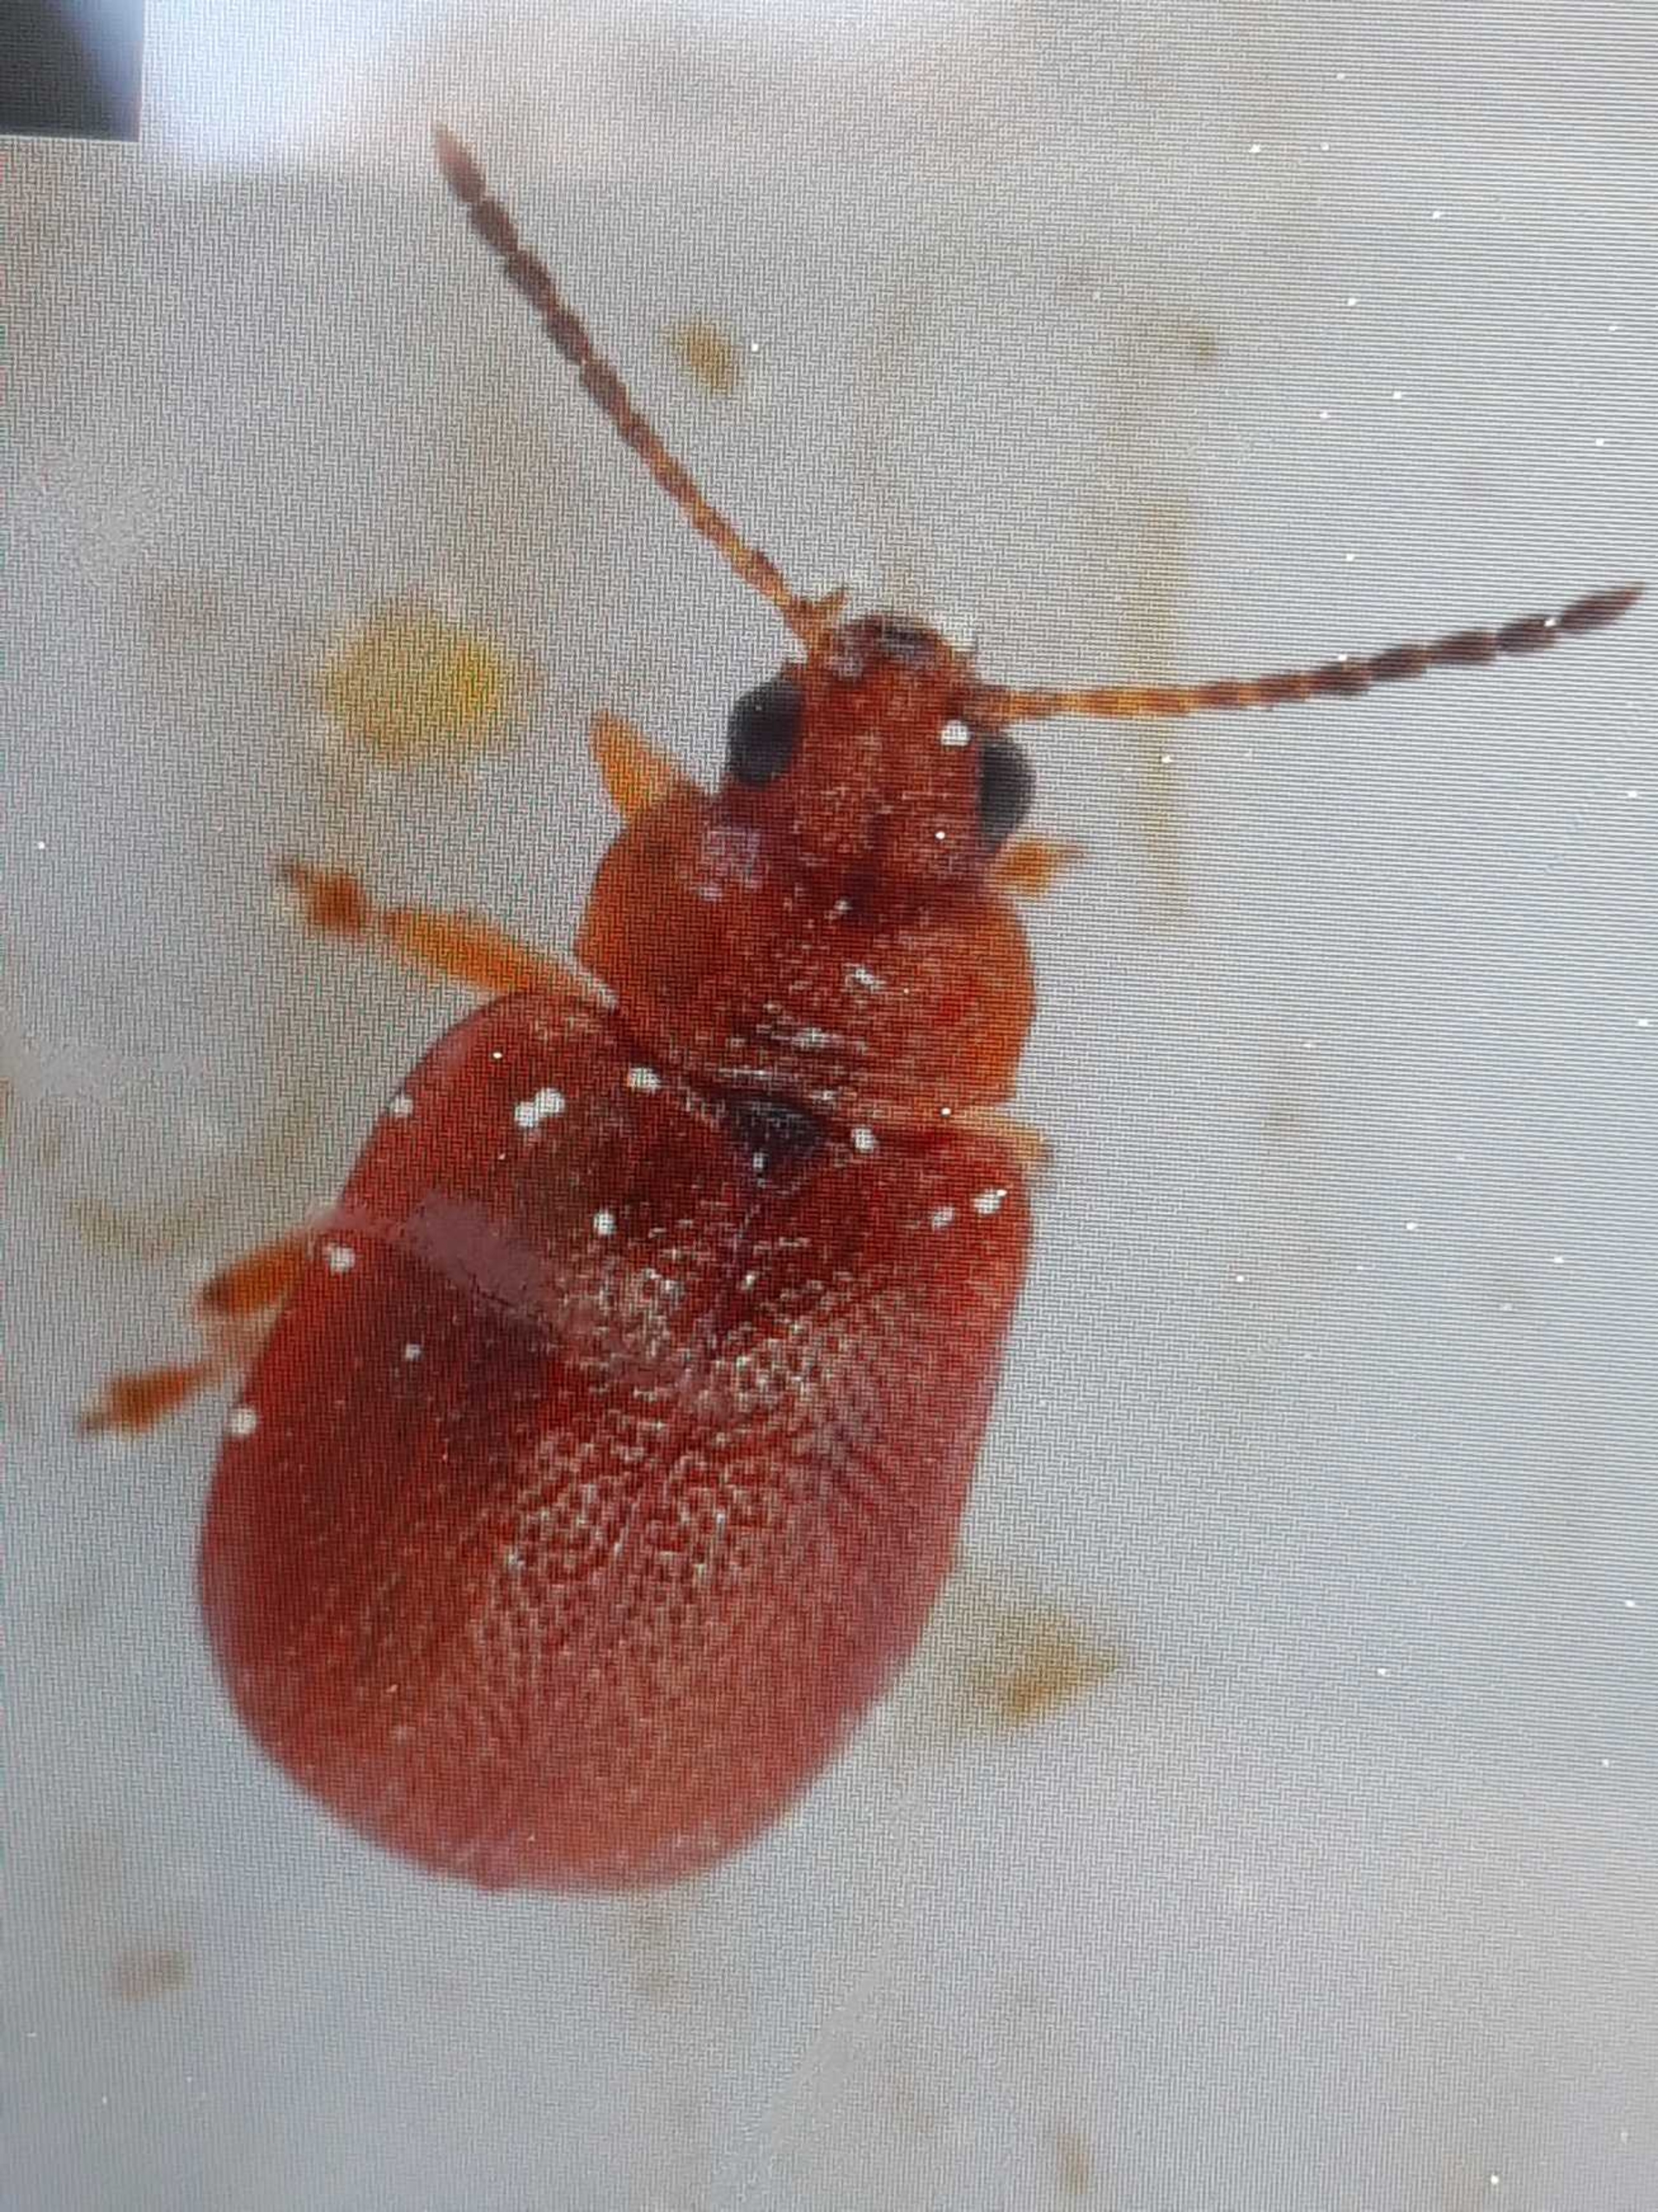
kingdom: Animalia
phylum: Arthropoda
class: Insecta
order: Coleoptera
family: Chrysomelidae
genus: Lochmaea
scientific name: Lochmaea crataegi
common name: Tjørnebladbille
